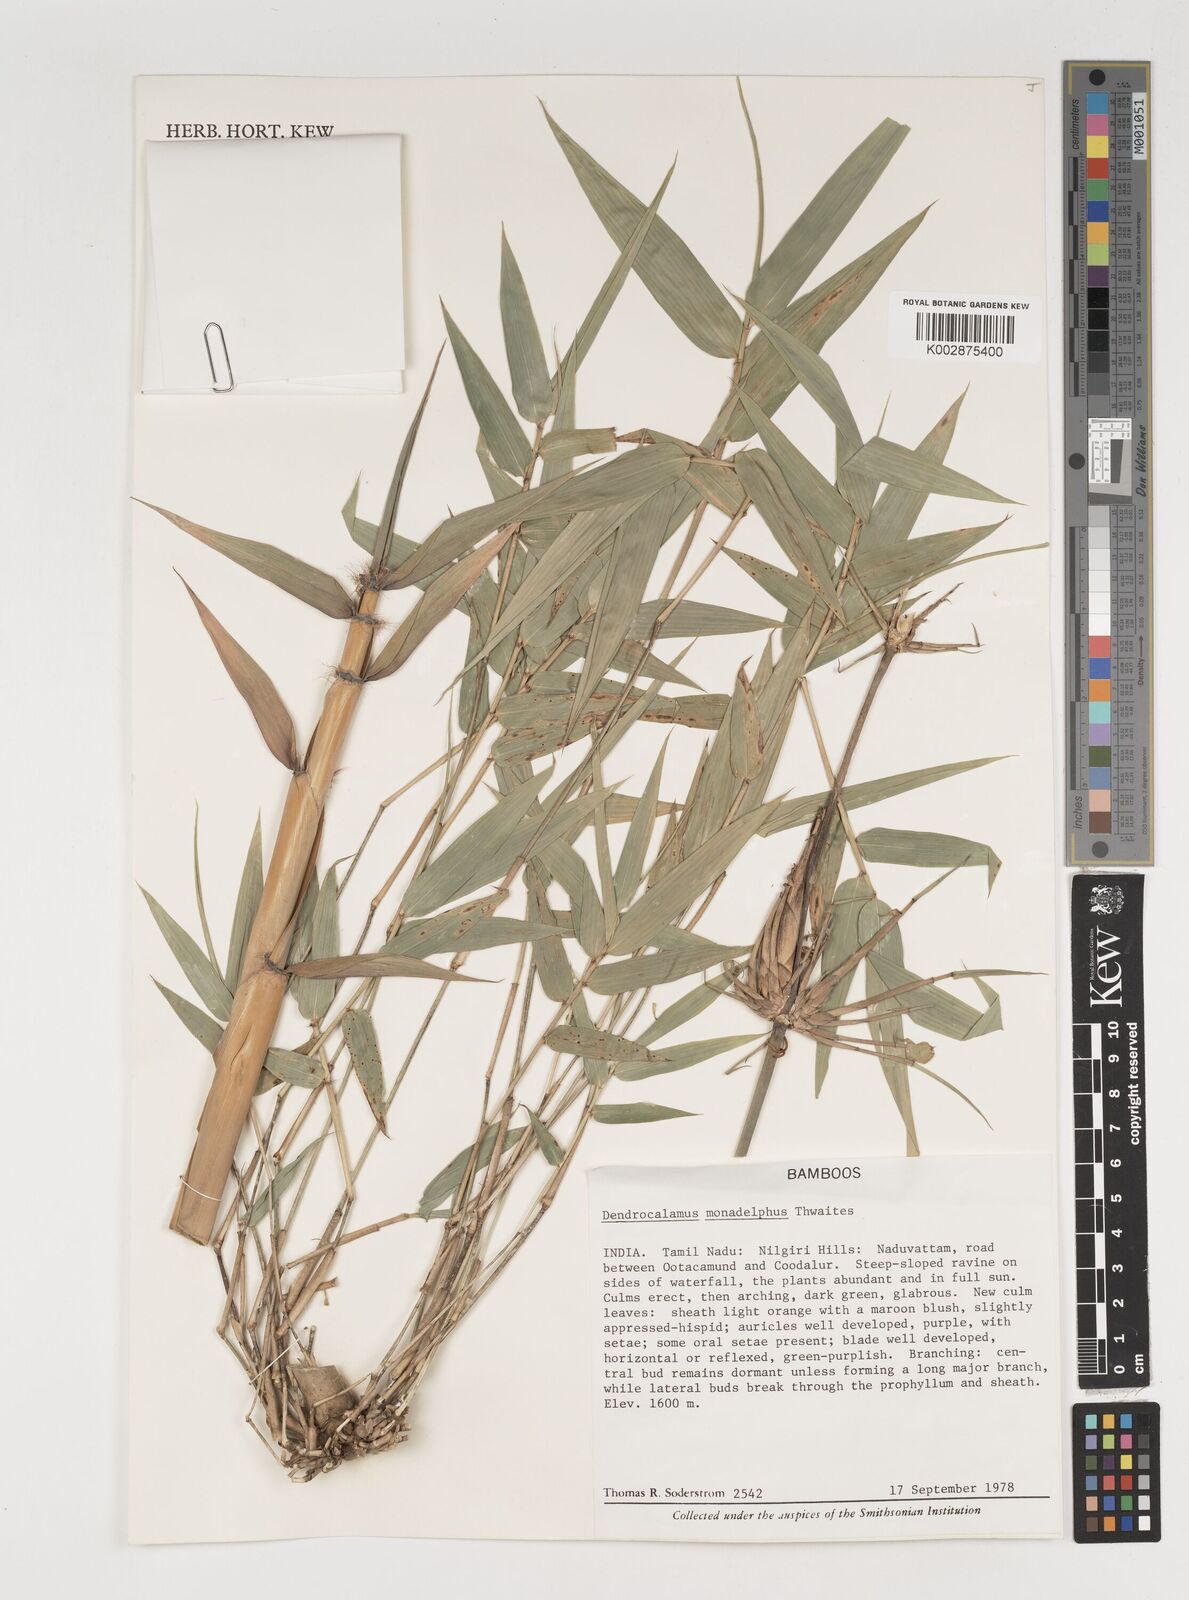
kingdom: Plantae
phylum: Tracheophyta
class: Liliopsida
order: Poales
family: Poaceae
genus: Dendrocalamus
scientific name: Dendrocalamus
